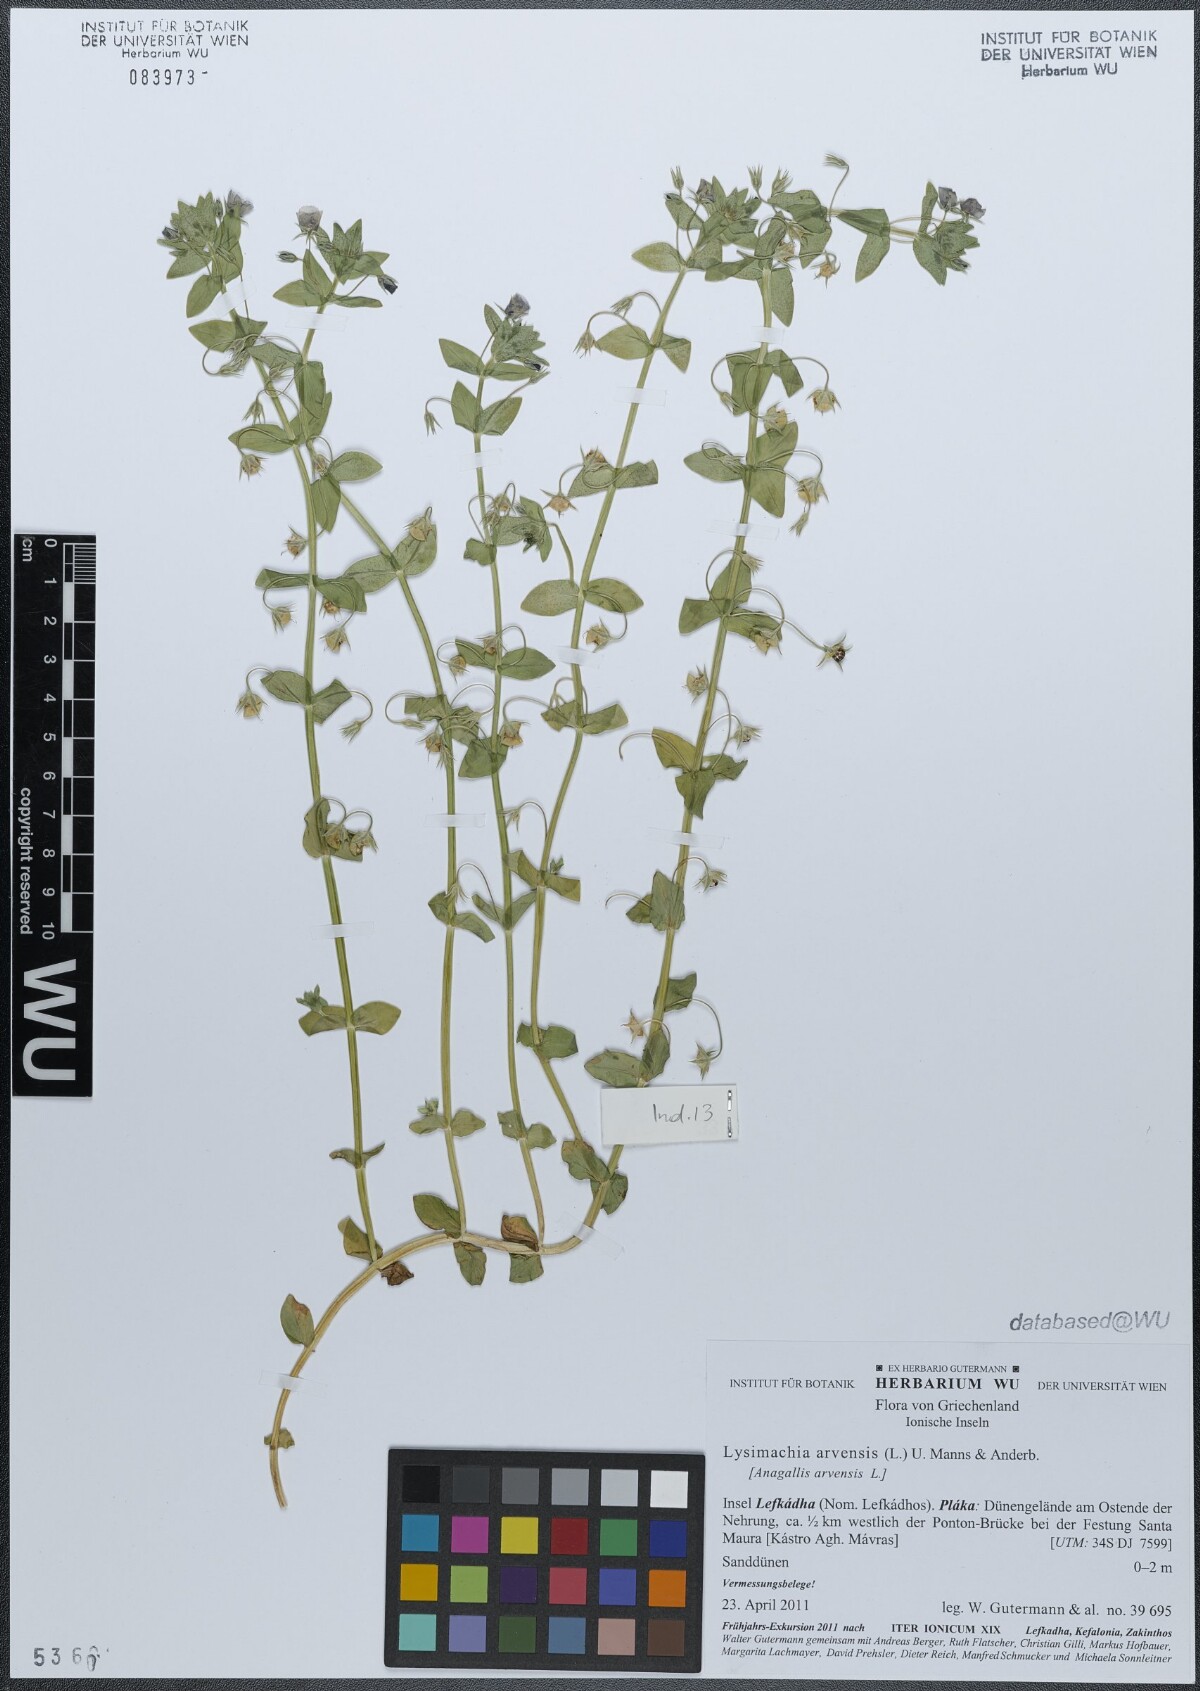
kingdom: Plantae
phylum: Tracheophyta
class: Magnoliopsida
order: Ericales
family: Primulaceae
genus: Lysimachia
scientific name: Lysimachia arvensis
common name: Scarlet pimpernel
